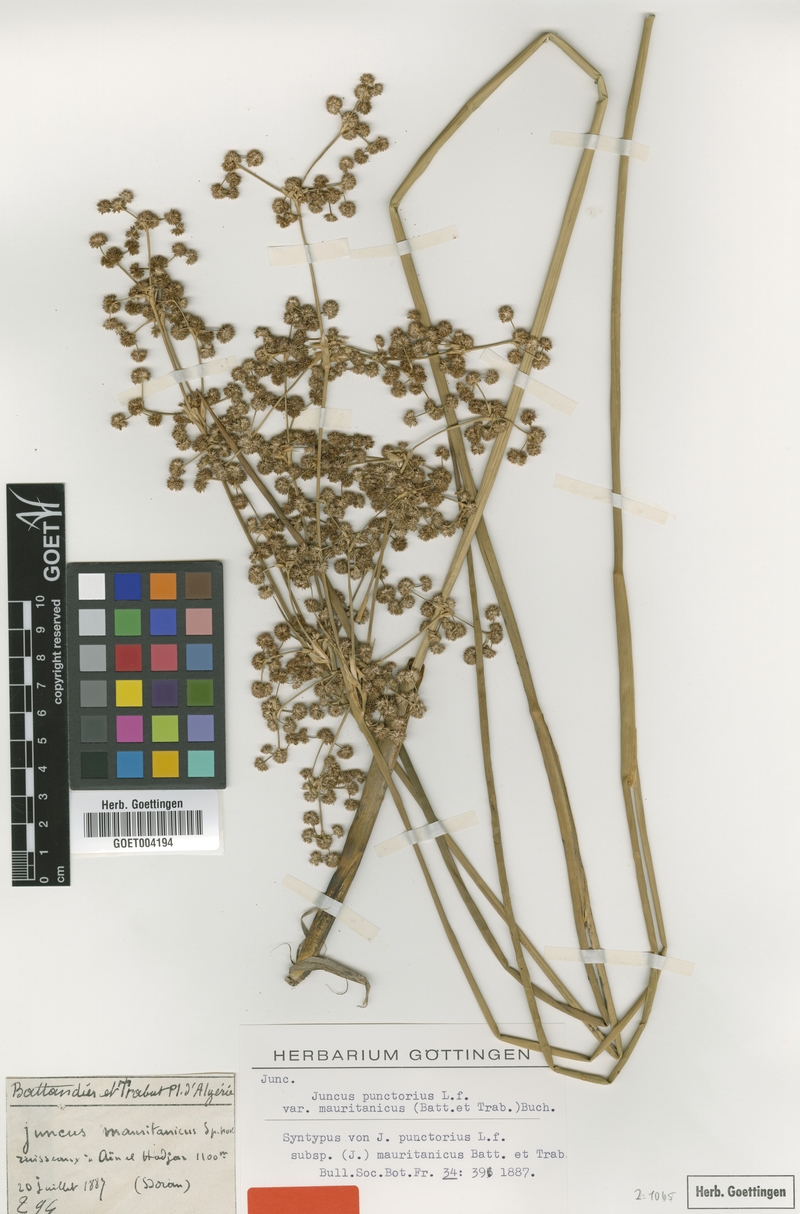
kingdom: Plantae
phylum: Tracheophyta
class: Liliopsida
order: Poales
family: Juncaceae
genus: Juncus
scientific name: Juncus punctorius
